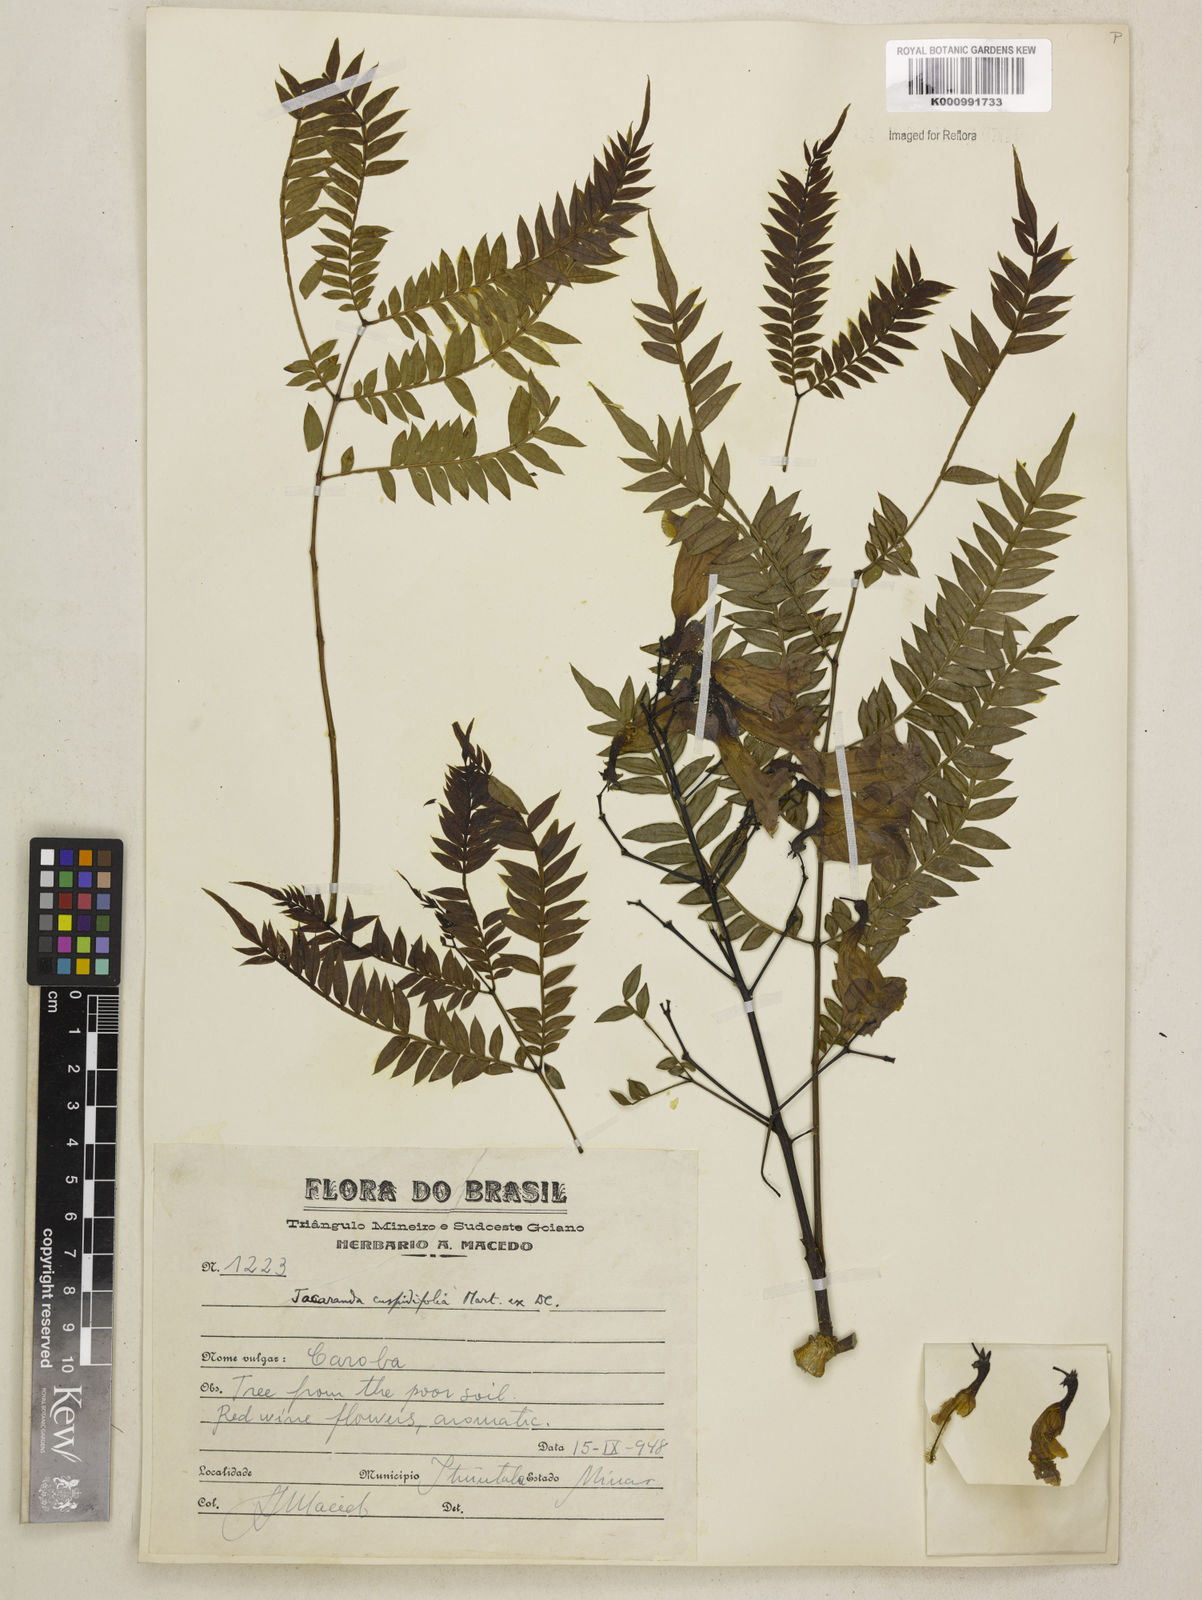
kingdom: Plantae
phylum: Tracheophyta
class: Magnoliopsida
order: Lamiales
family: Bignoniaceae
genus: Jacaranda
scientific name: Jacaranda cuspidifolia
